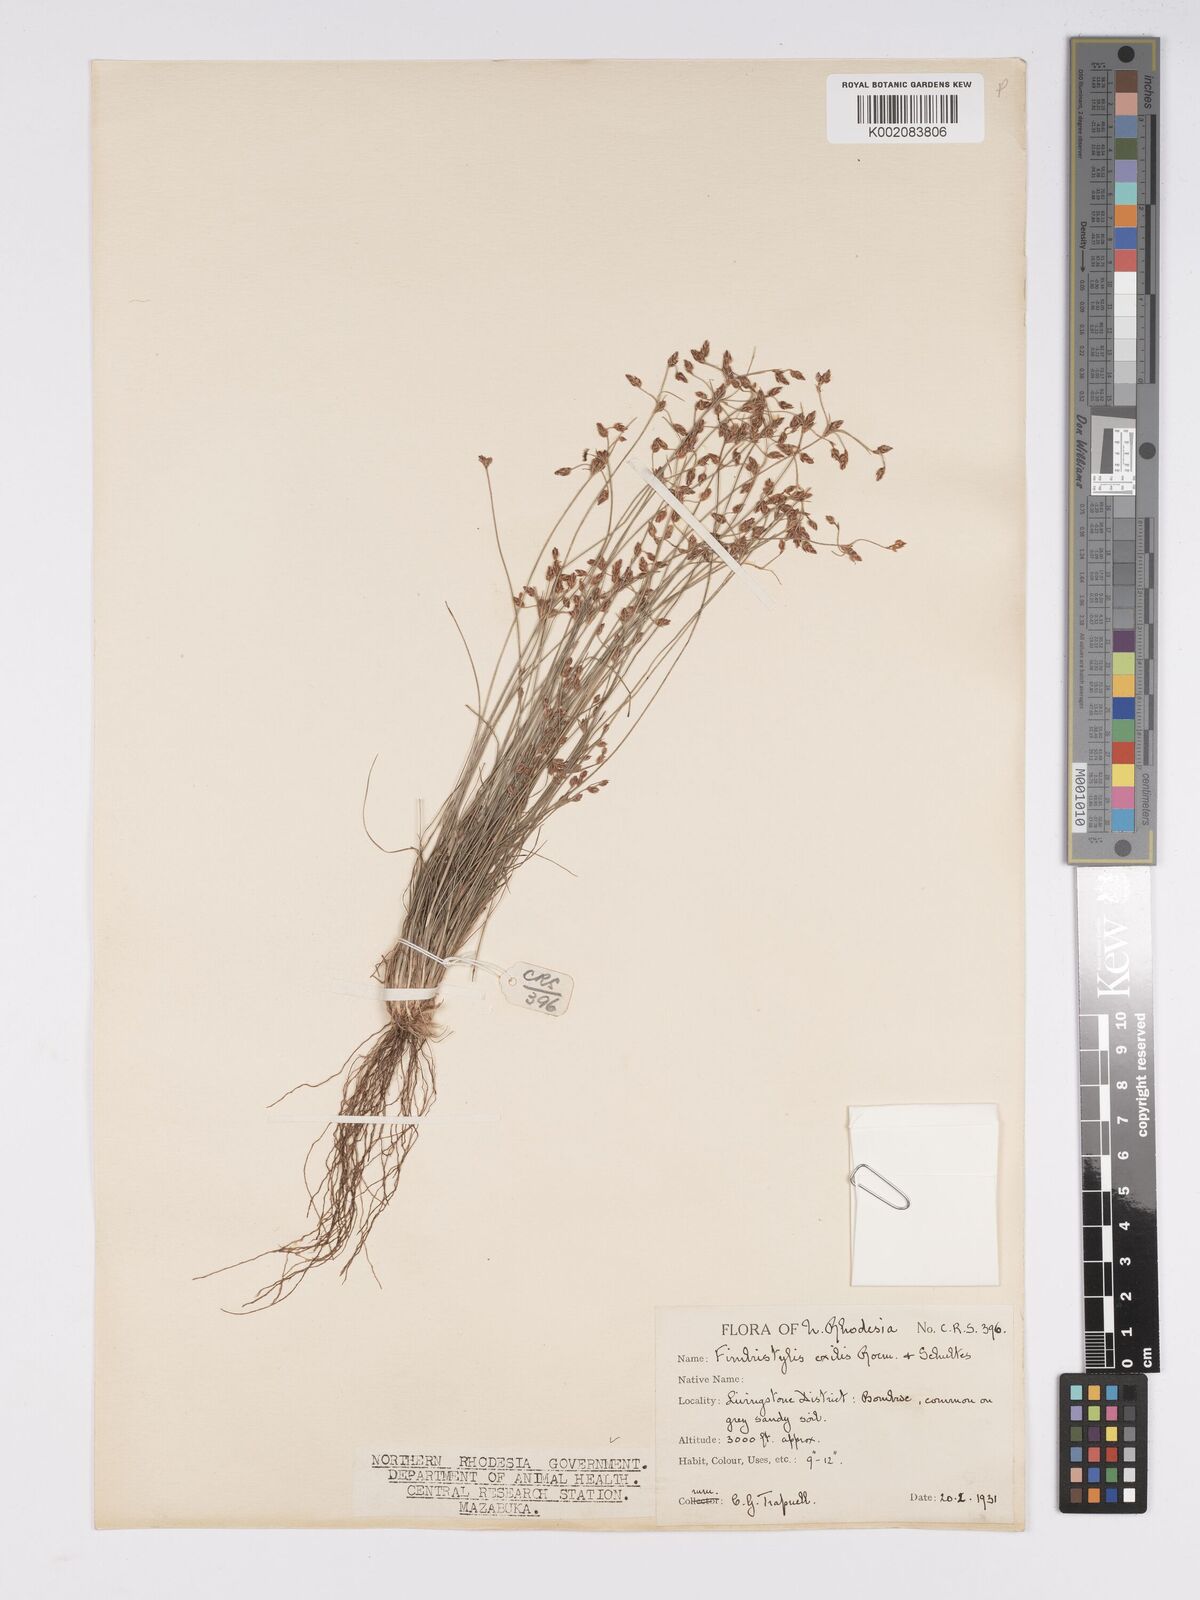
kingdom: Plantae
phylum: Tracheophyta
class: Liliopsida
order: Poales
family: Cyperaceae
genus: Bulbostylis
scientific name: Bulbostylis hispidula
